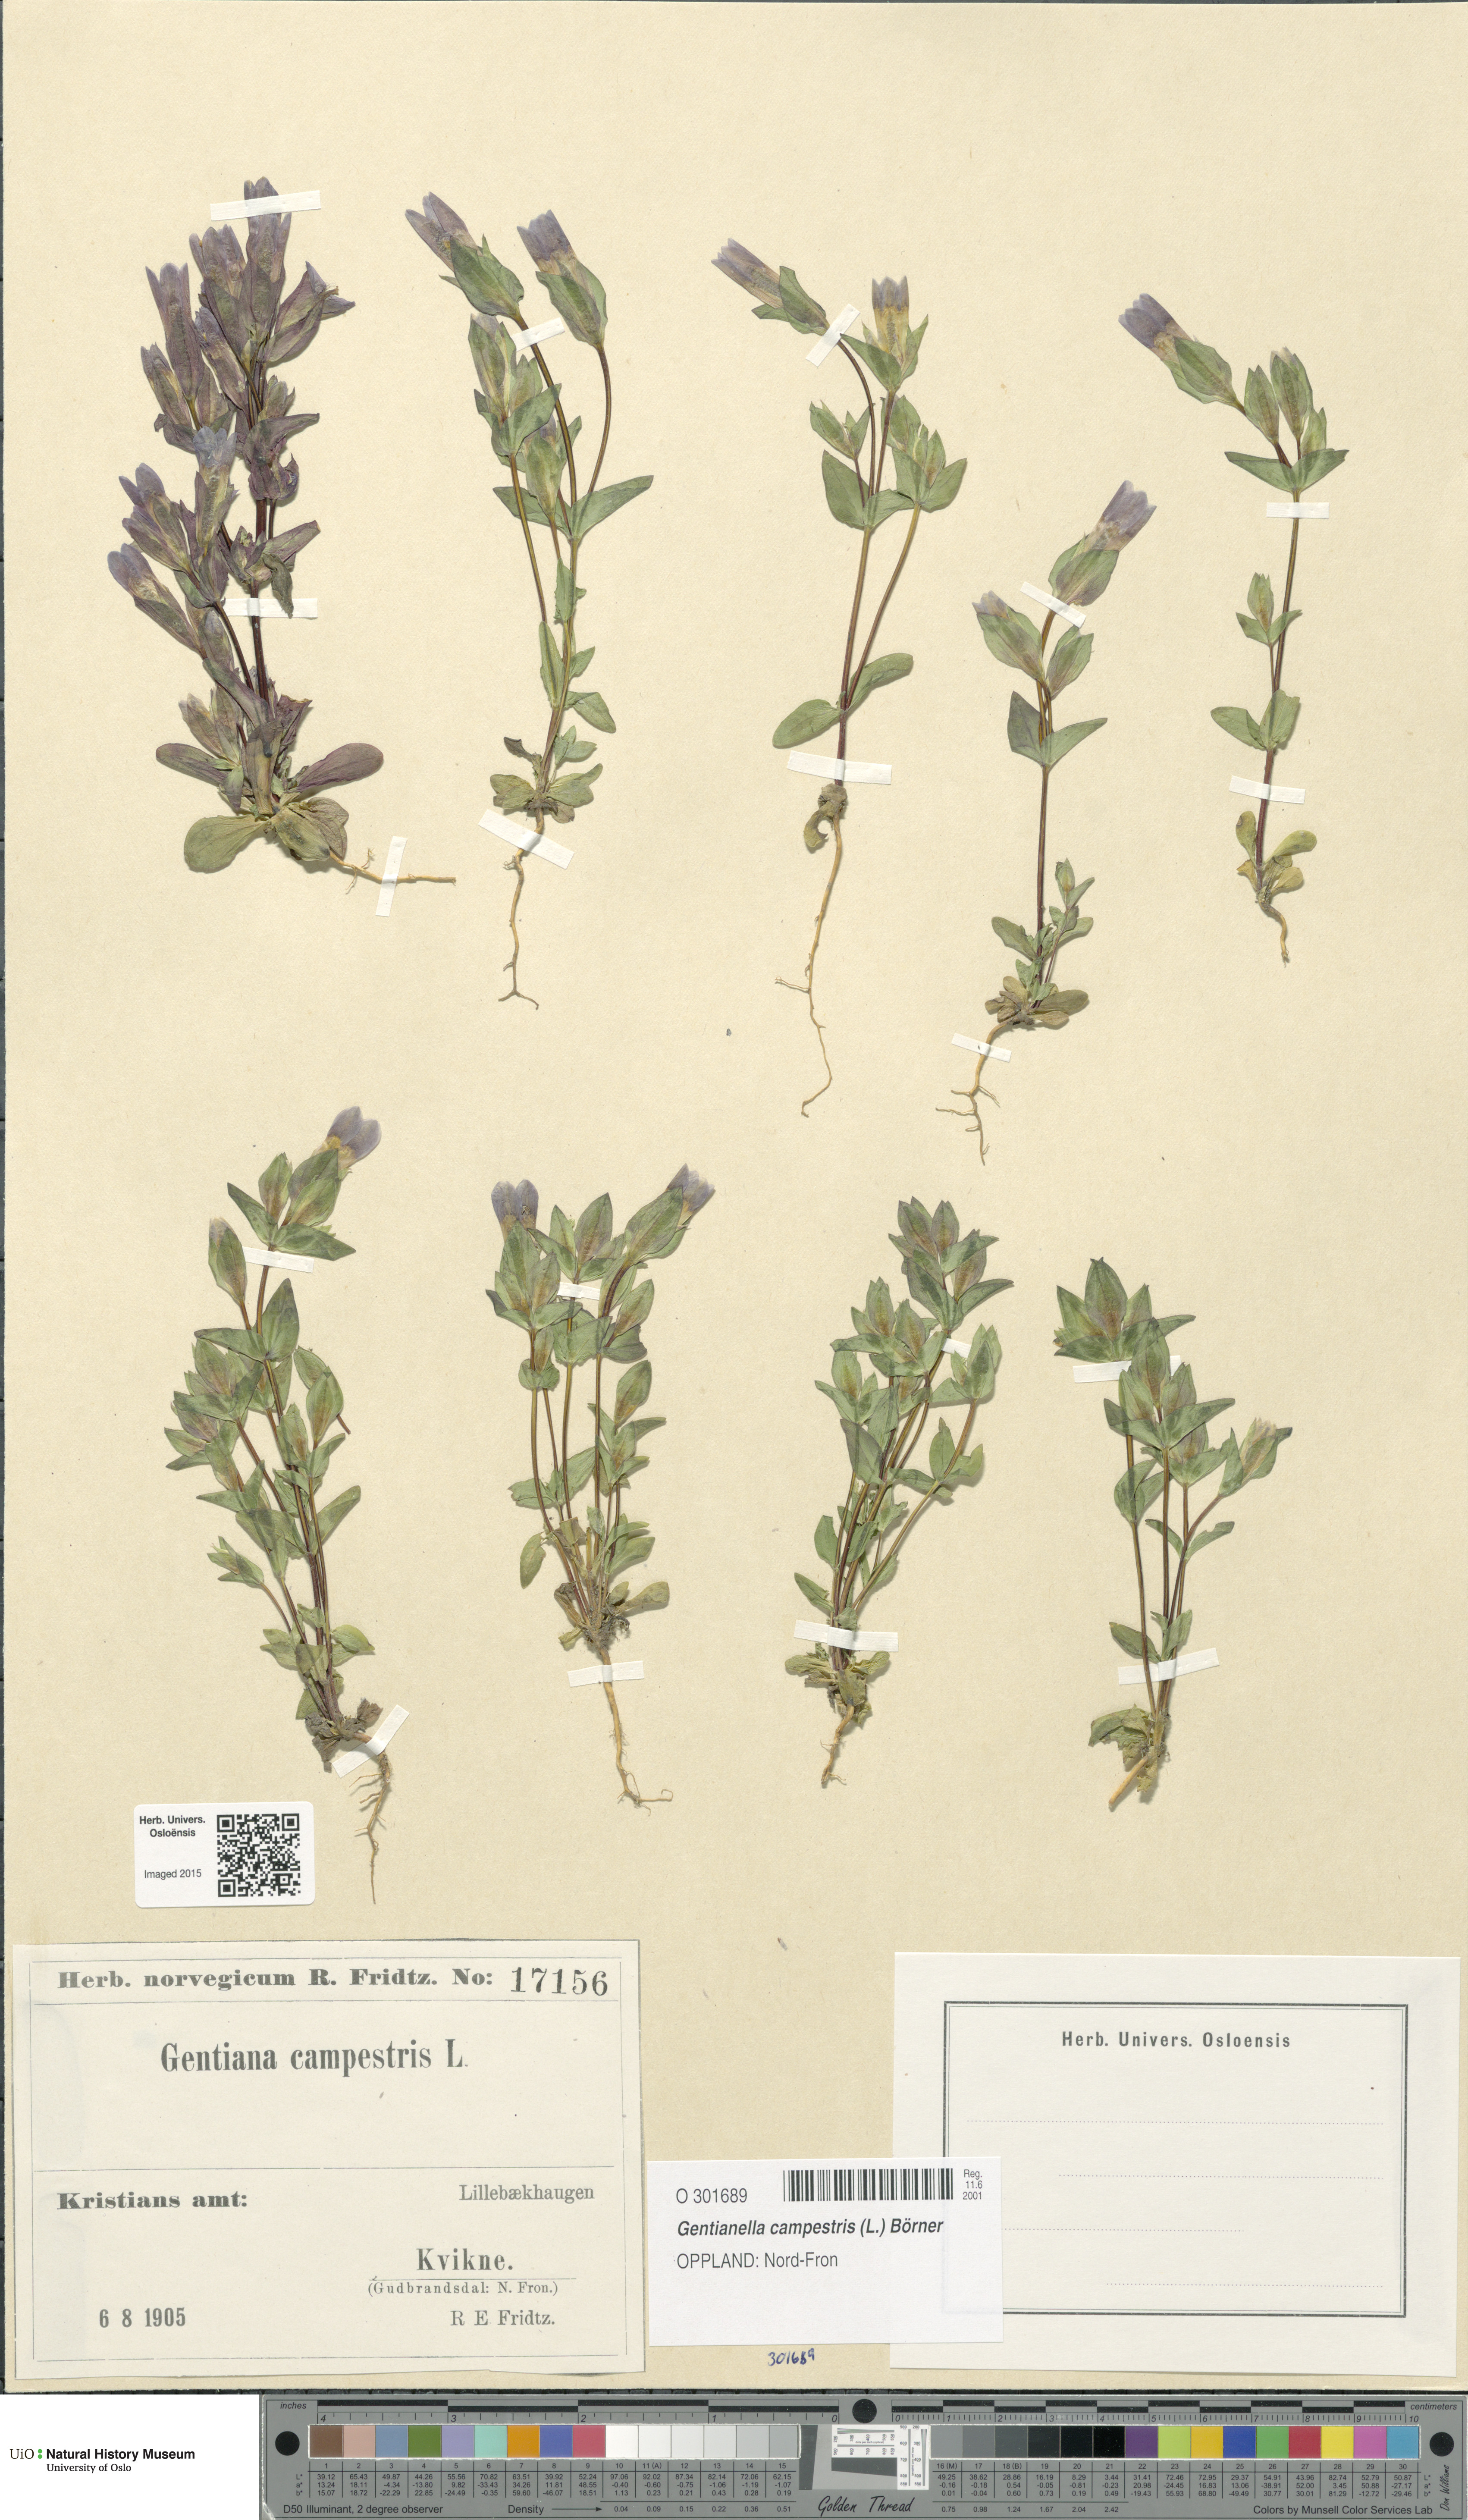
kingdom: Plantae
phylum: Tracheophyta
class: Magnoliopsida
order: Gentianales
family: Gentianaceae
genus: Gentianella
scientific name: Gentianella campestris
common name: Field gentian
